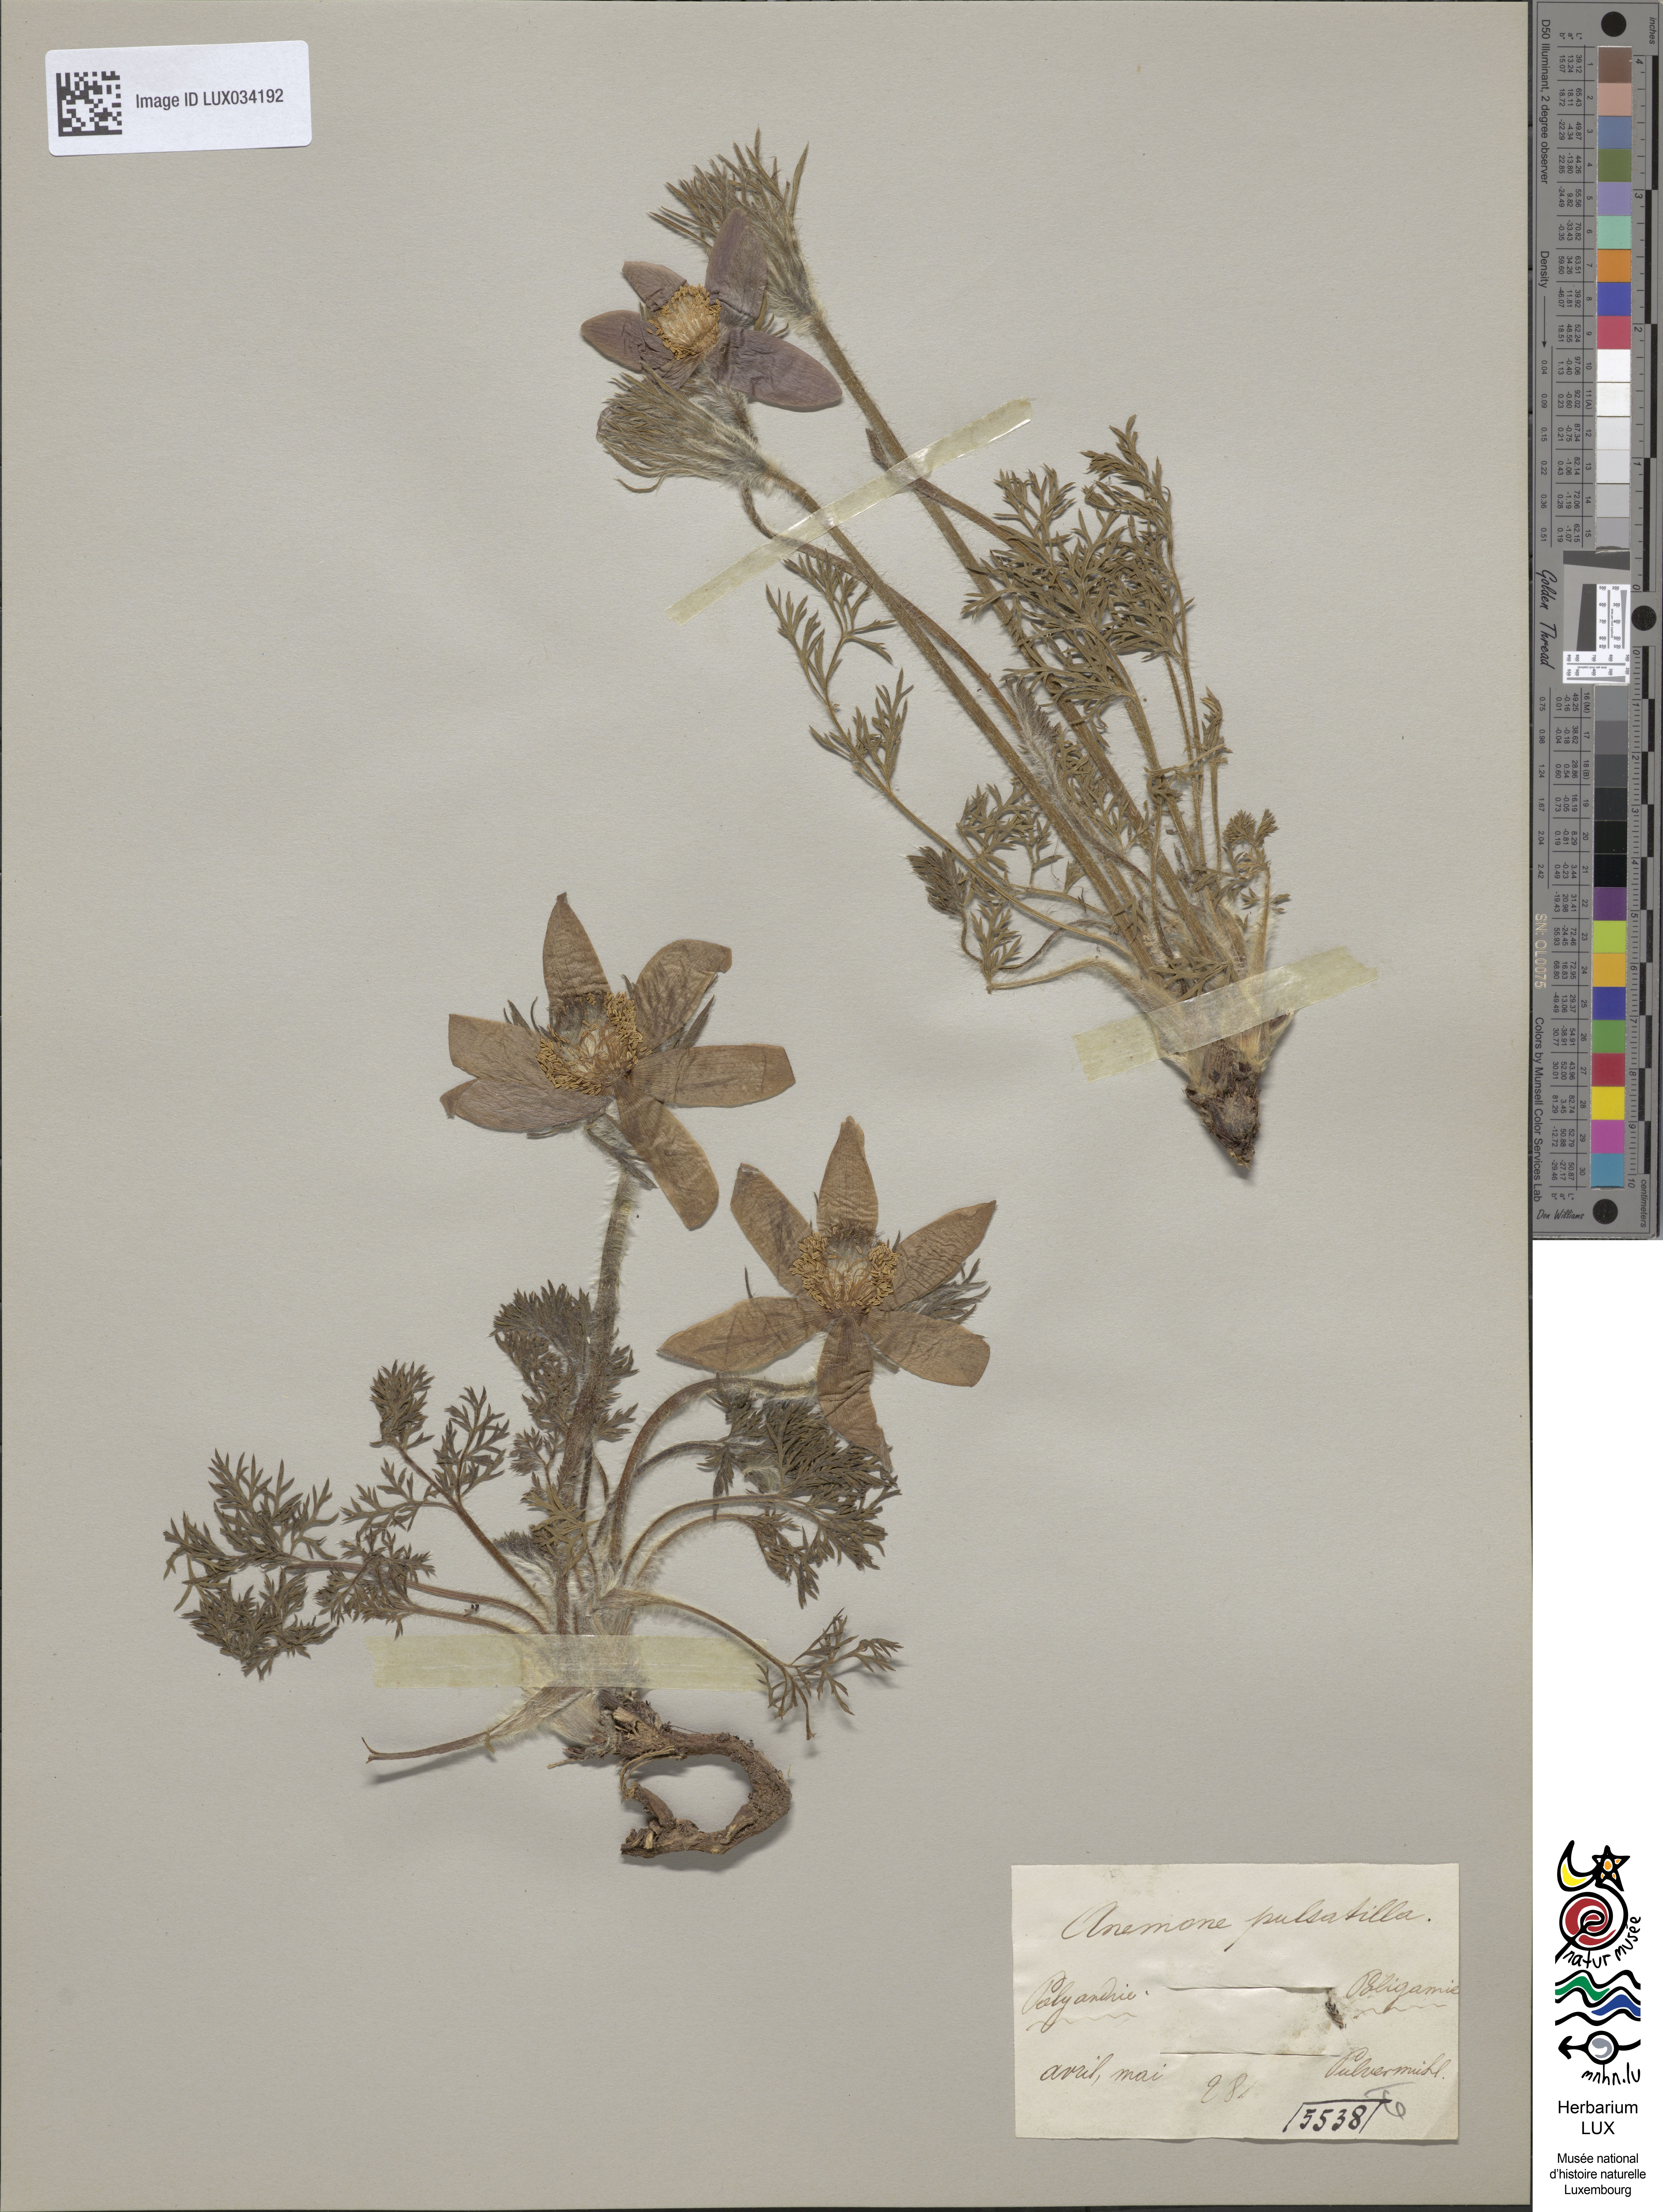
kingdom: Plantae
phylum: Tracheophyta
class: Magnoliopsida
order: Ranunculales
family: Ranunculaceae
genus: Pulsatilla
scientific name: Pulsatilla vulgaris
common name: Pasqueflower
